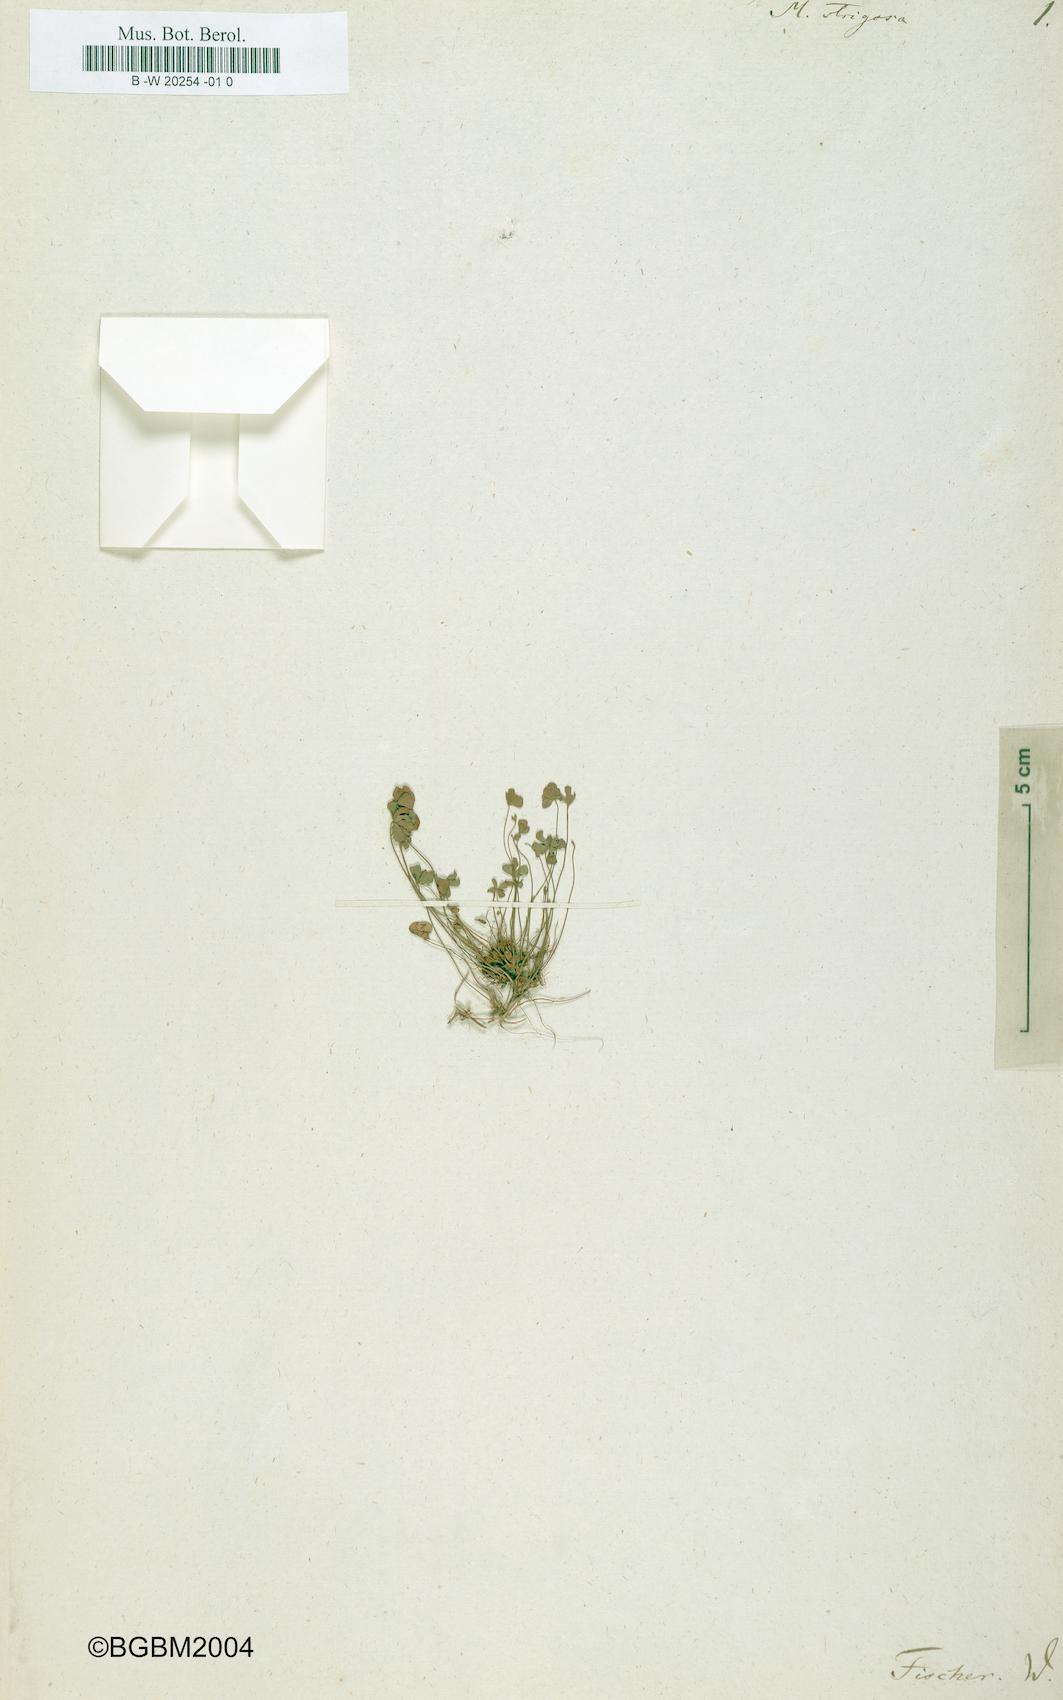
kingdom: Plantae
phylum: Tracheophyta
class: Polypodiopsida
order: Salviniales
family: Marsileaceae
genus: Marsilea
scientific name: Marsilea strigosa
